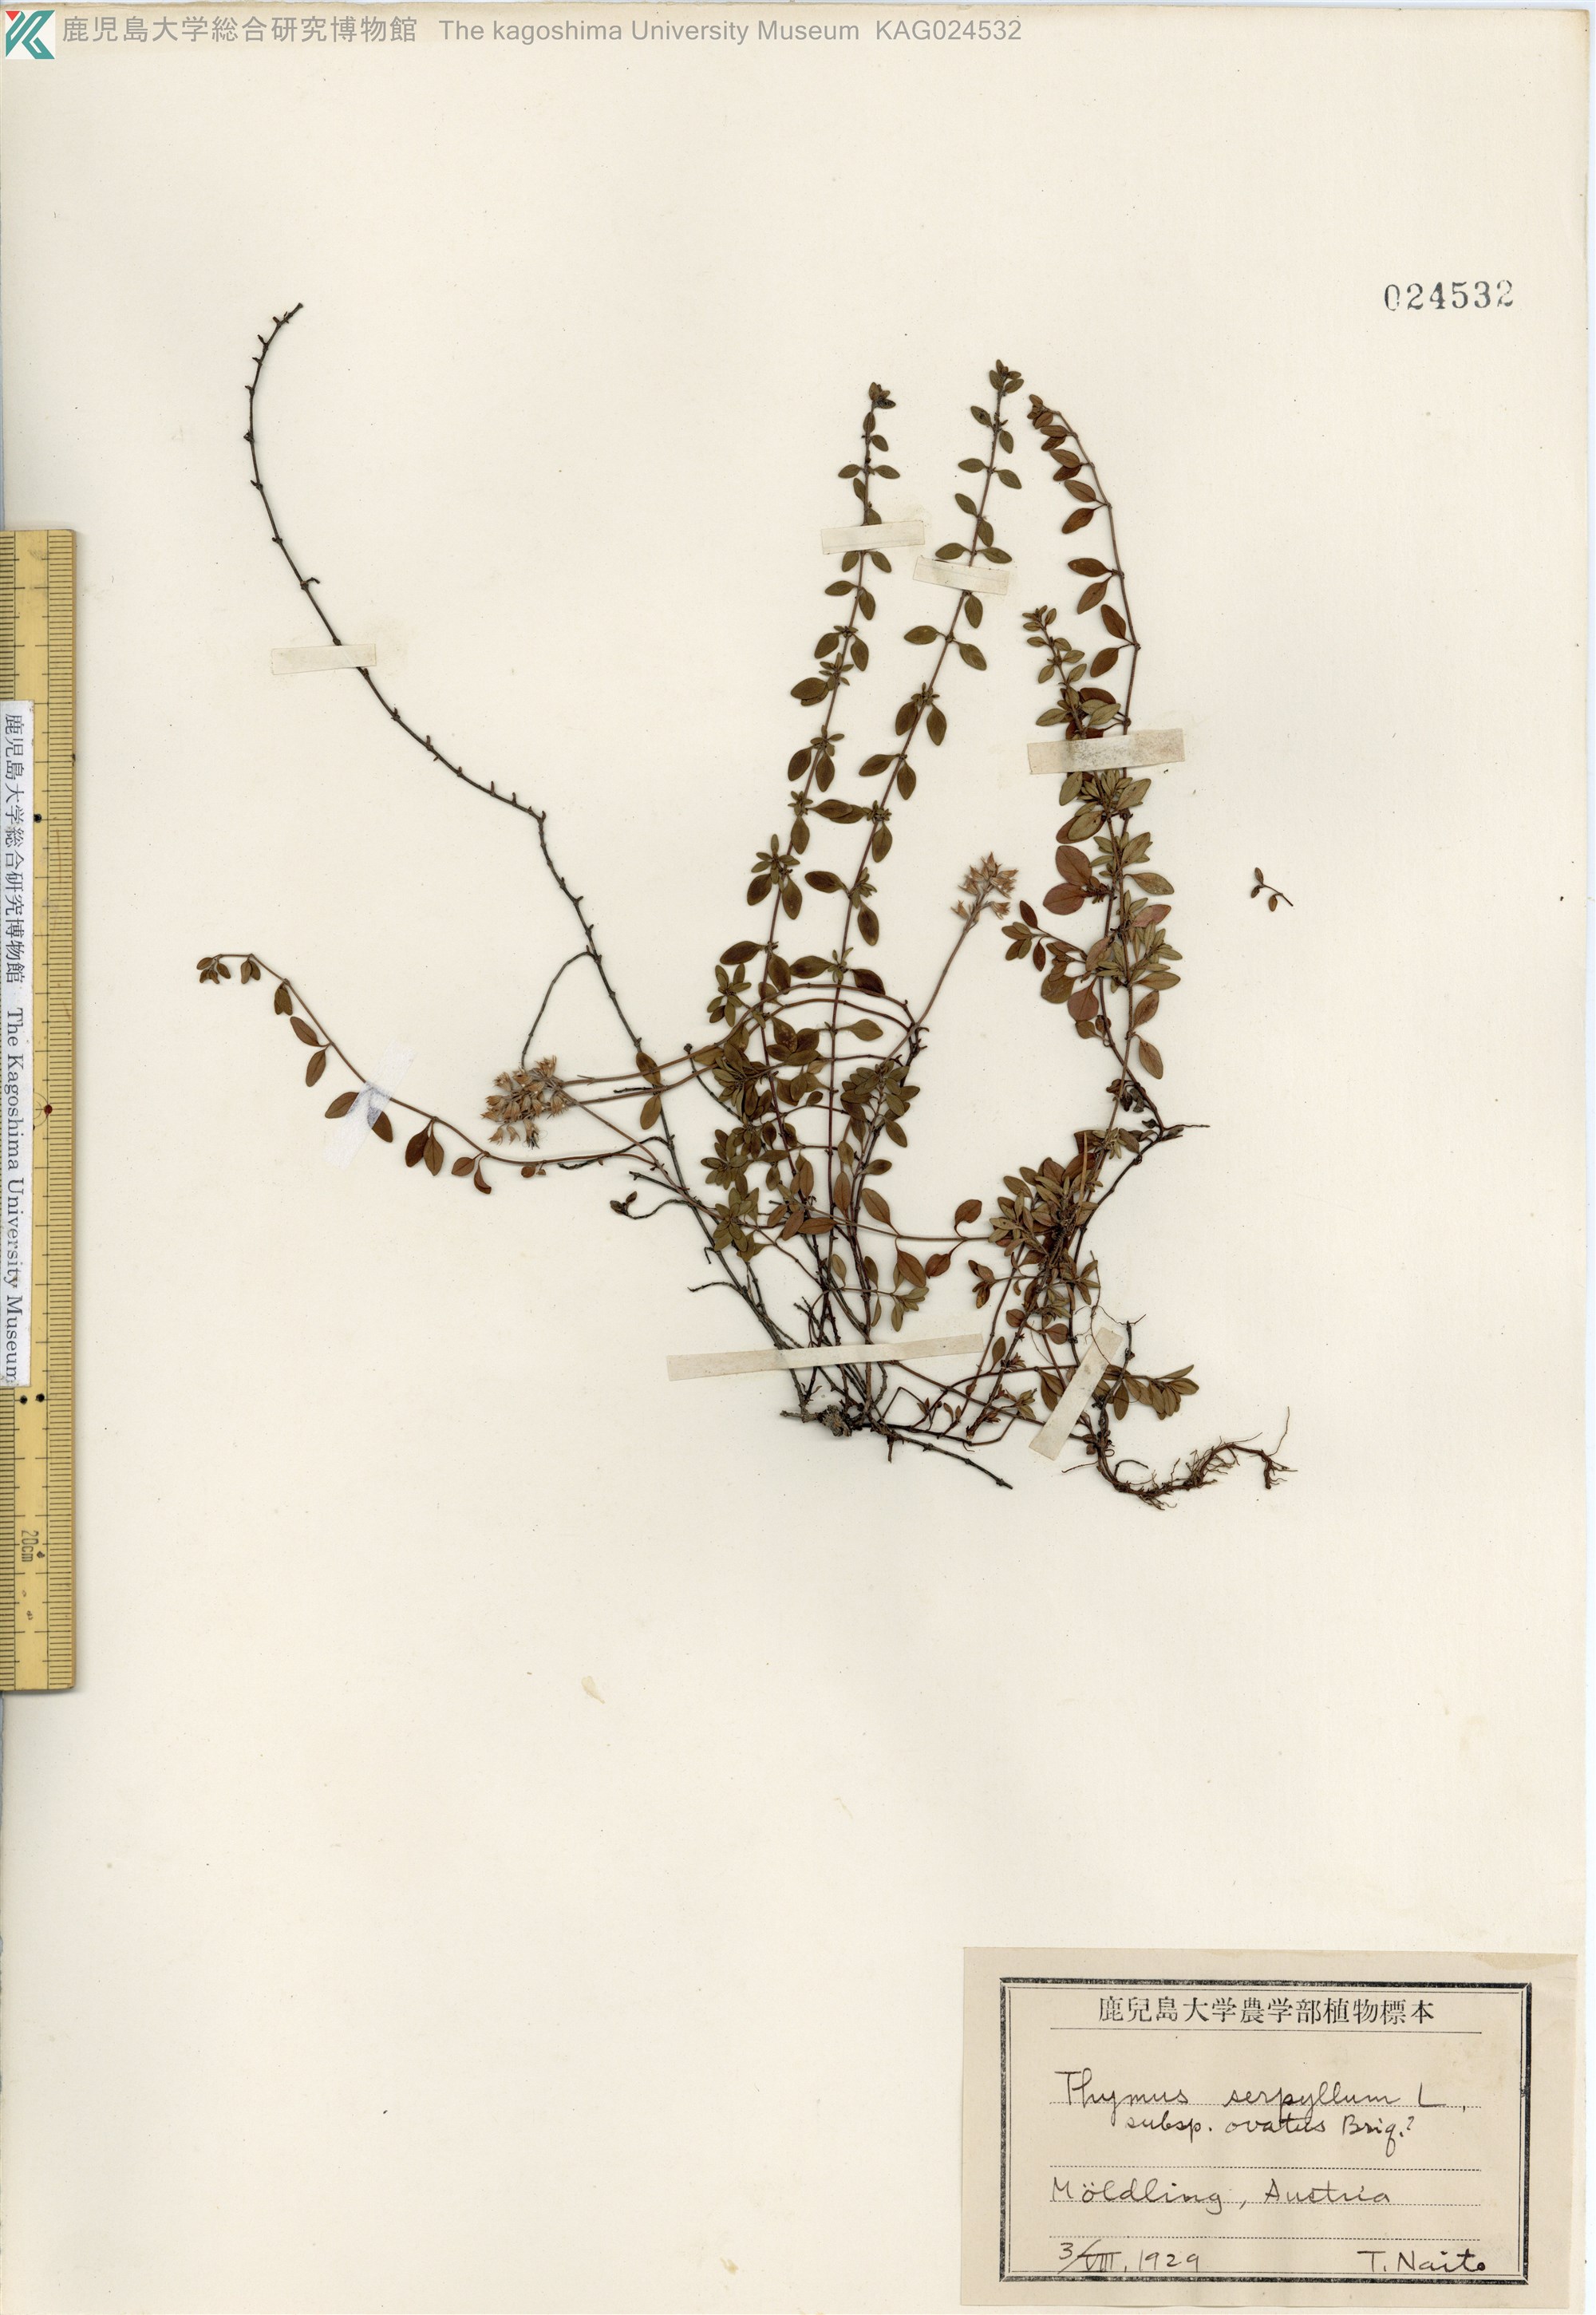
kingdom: Plantae
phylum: Tracheophyta
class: Magnoliopsida
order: Lamiales
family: Lamiaceae
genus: Thymus
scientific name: Thymus quinquecostatus
